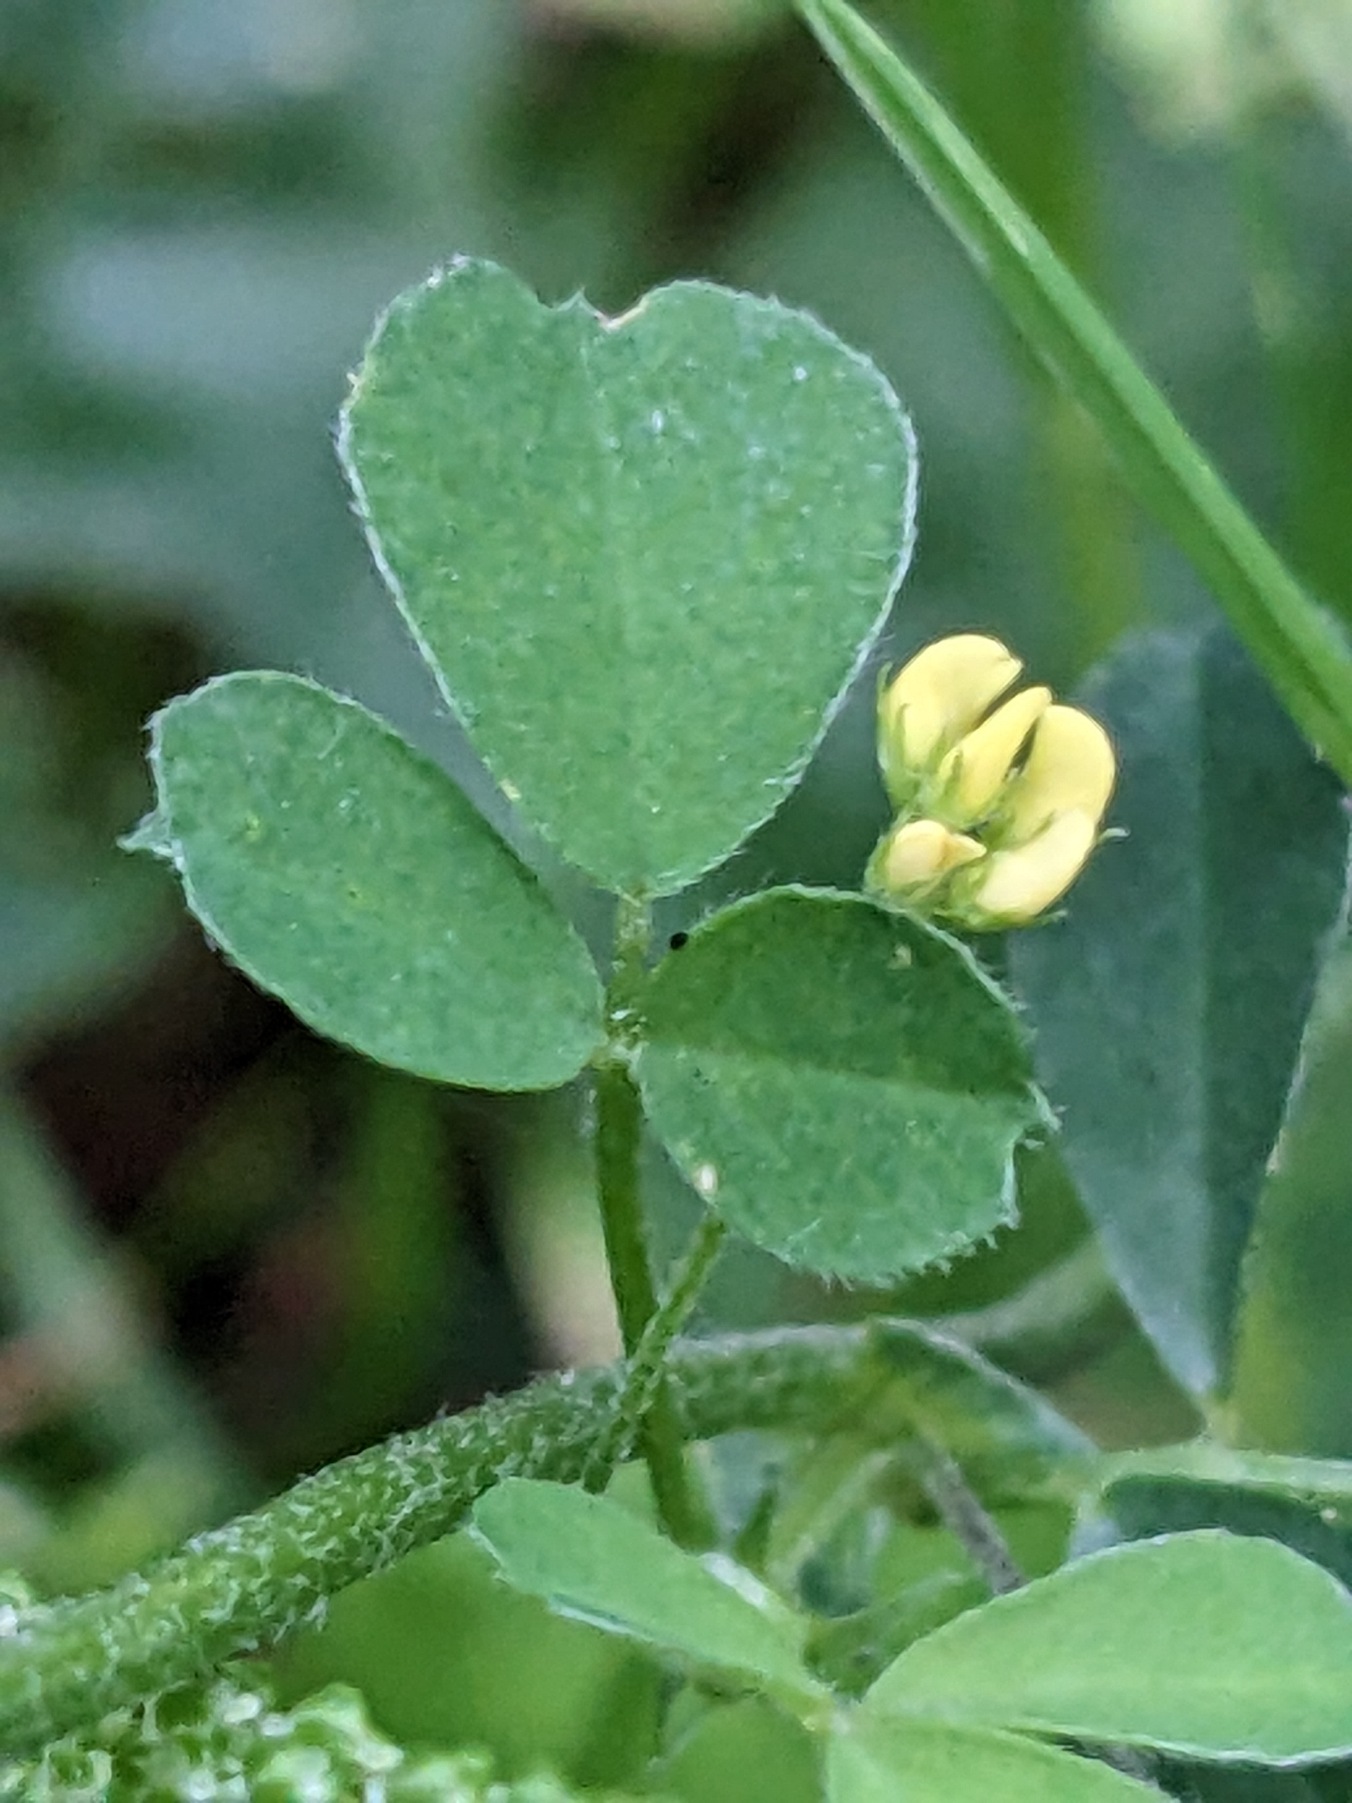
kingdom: Plantae
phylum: Tracheophyta
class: Magnoliopsida
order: Fabales
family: Fabaceae
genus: Medicago
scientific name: Medicago lupulina
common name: Humle-sneglebælg
